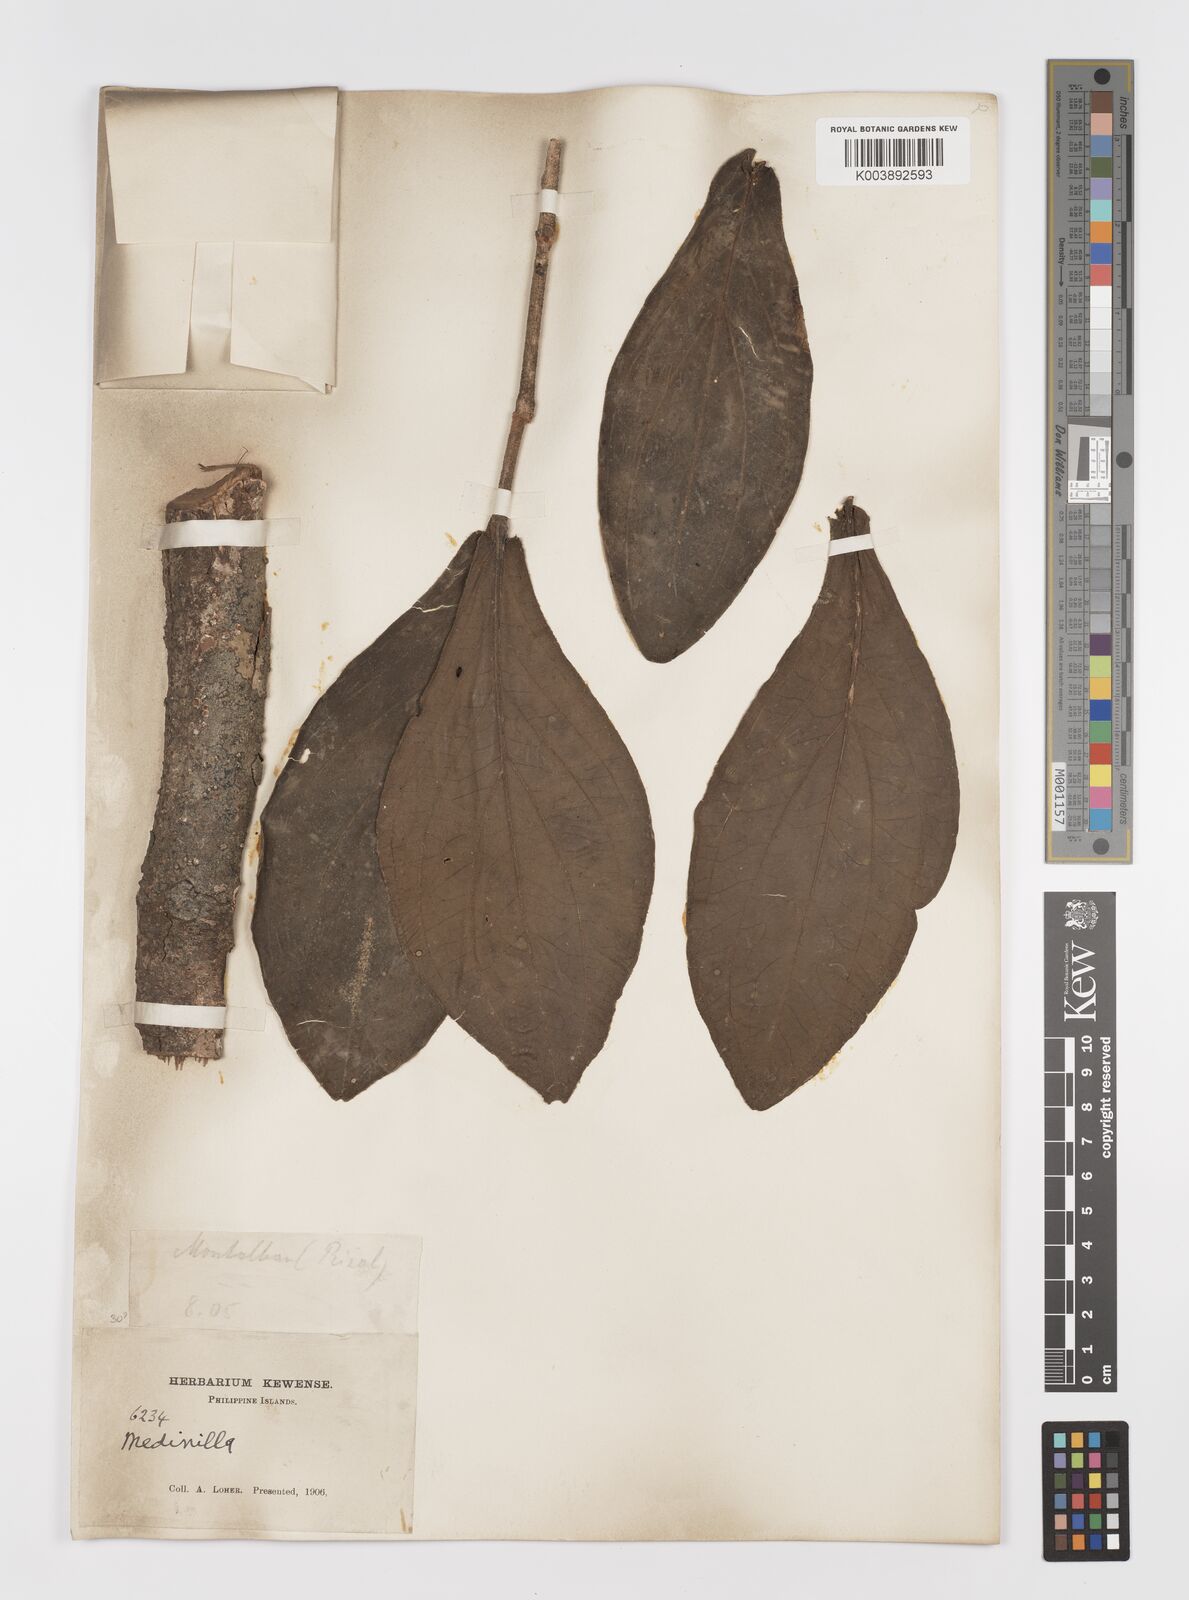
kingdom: Plantae
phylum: Tracheophyta
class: Magnoliopsida
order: Myrtales
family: Melastomataceae
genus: Medinilla
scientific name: Medinilla aurantiiflora
